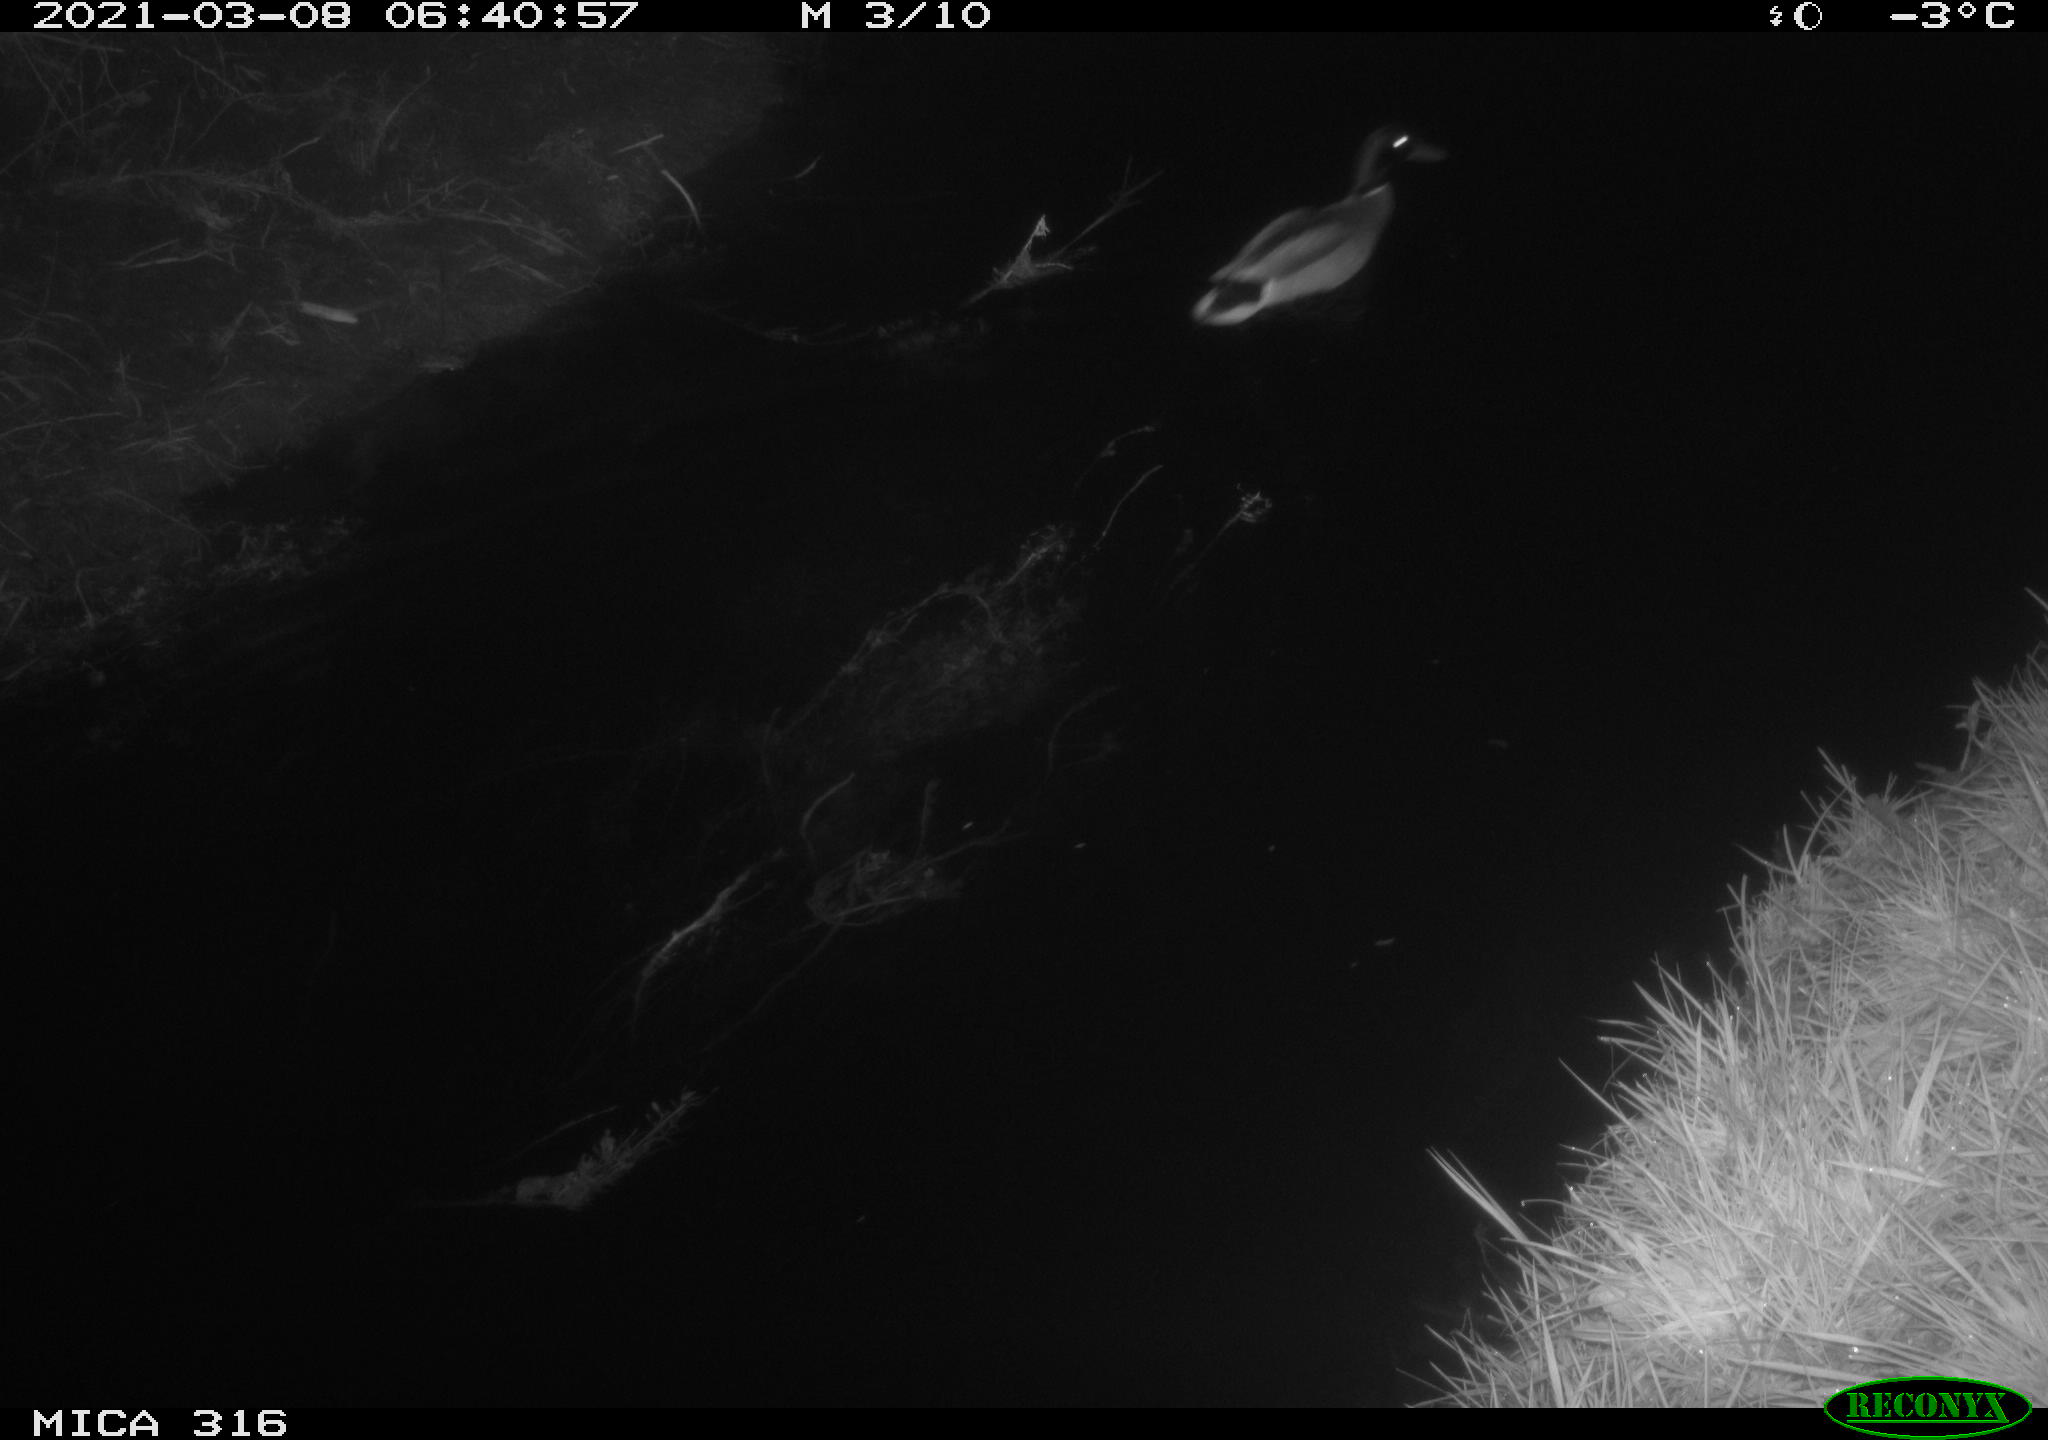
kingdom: Animalia
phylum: Chordata
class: Aves
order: Anseriformes
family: Anatidae
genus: Anas
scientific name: Anas platyrhynchos
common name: Mallard
